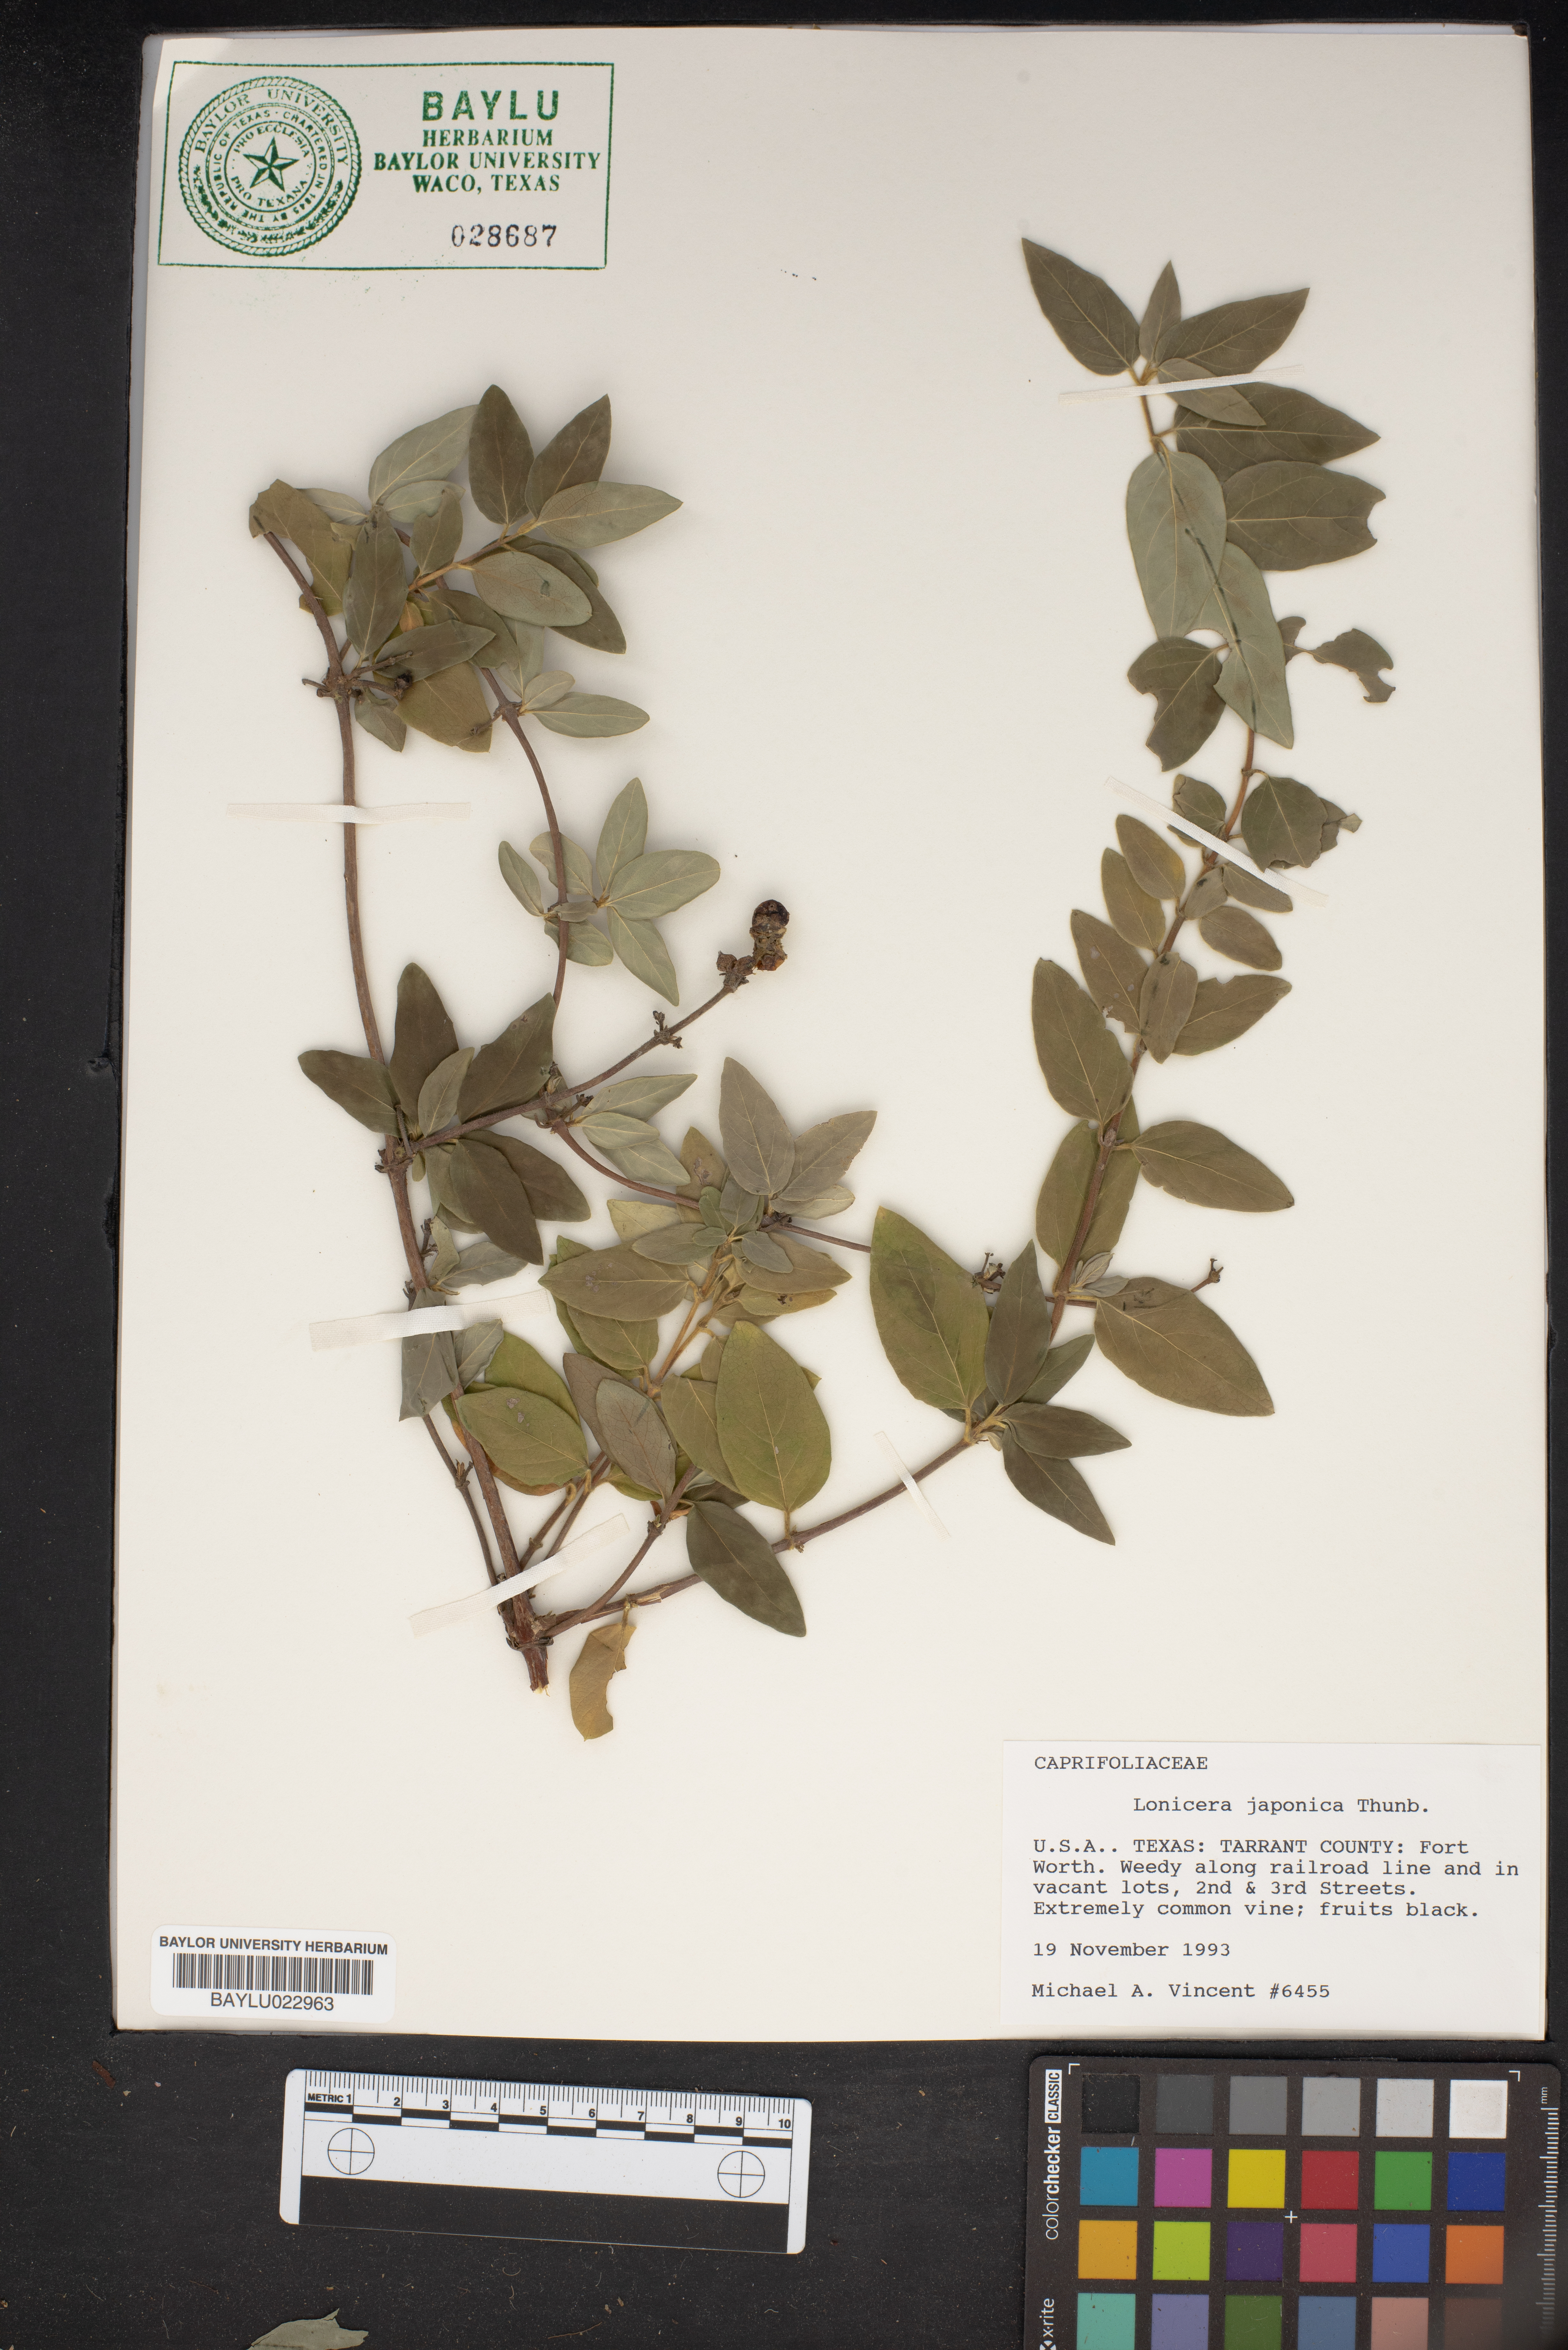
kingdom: Plantae
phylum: Tracheophyta
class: Magnoliopsida
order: Dipsacales
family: Caprifoliaceae
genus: Lonicera
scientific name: Lonicera japonica
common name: Japanese honeysuckle
